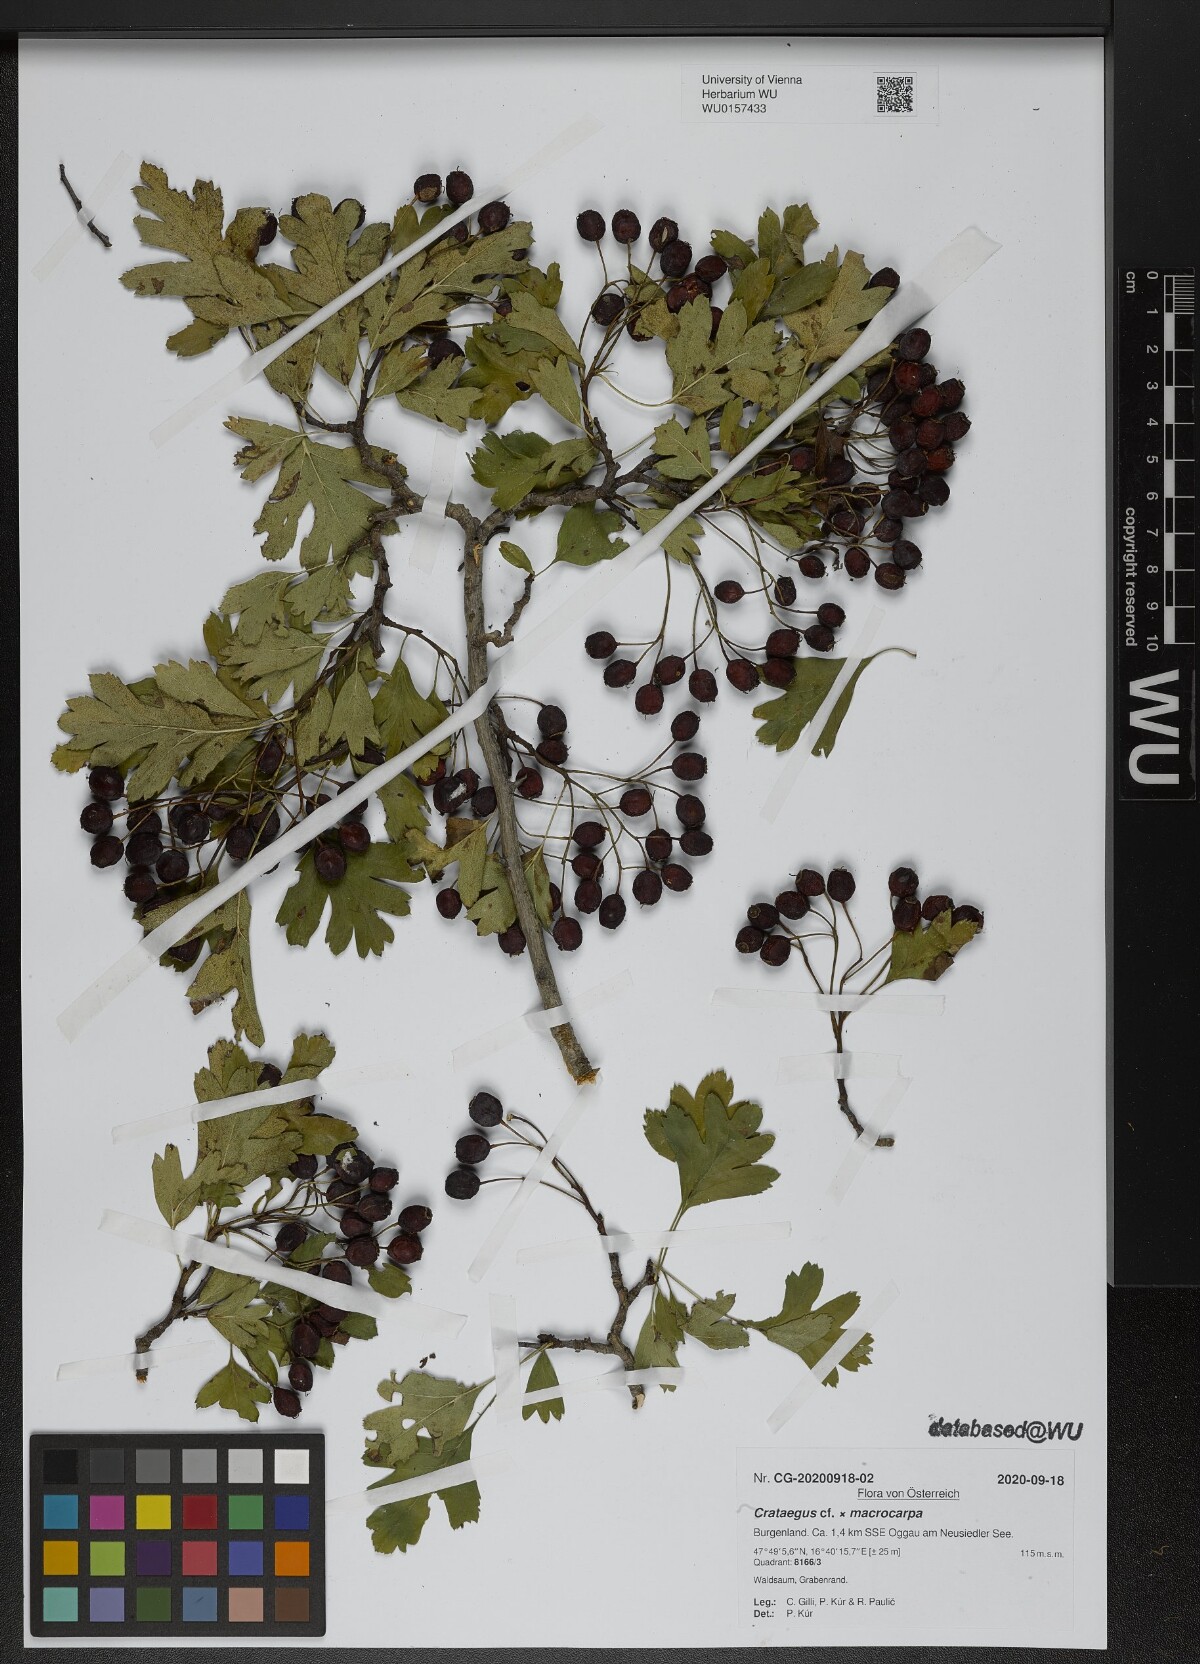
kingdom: Plantae
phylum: Tracheophyta
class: Magnoliopsida
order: Rosales
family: Rosaceae
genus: Crataegus
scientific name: Crataegus macrocarpa
